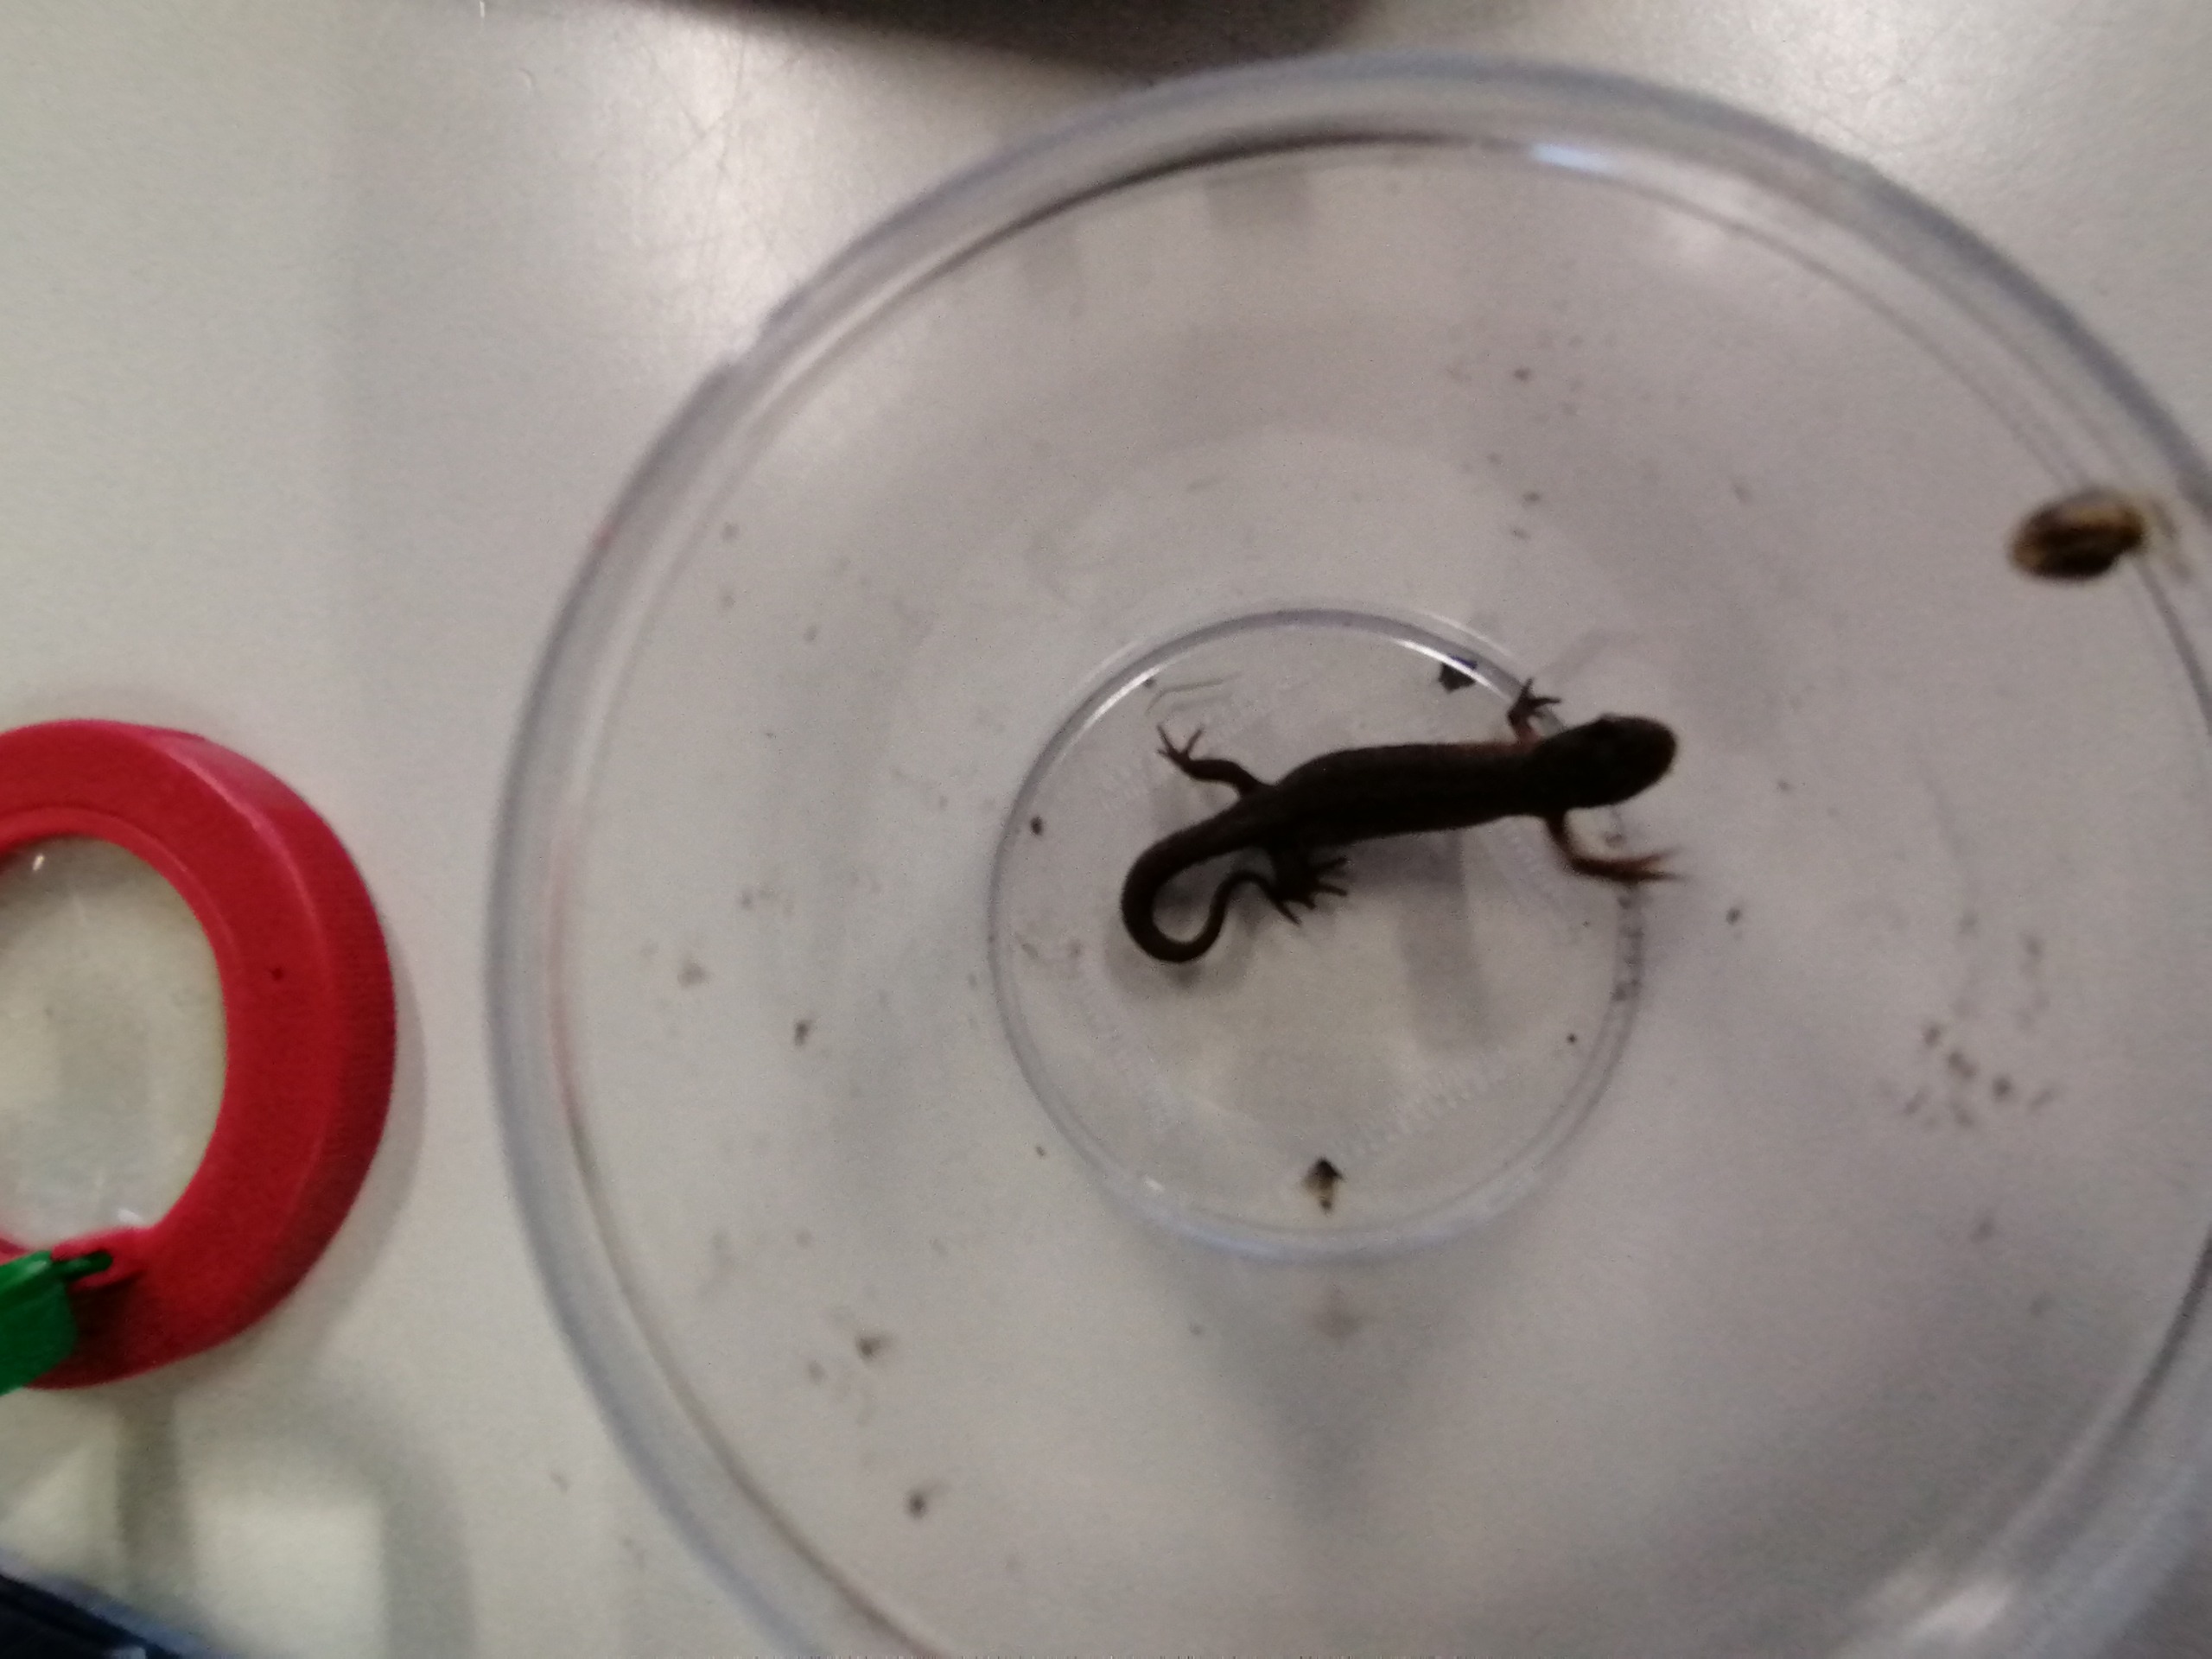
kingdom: Animalia
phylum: Chordata
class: Amphibia
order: Caudata
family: Salamandridae
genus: Lissotriton
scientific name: Lissotriton vulgaris
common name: Lille vandsalamander
